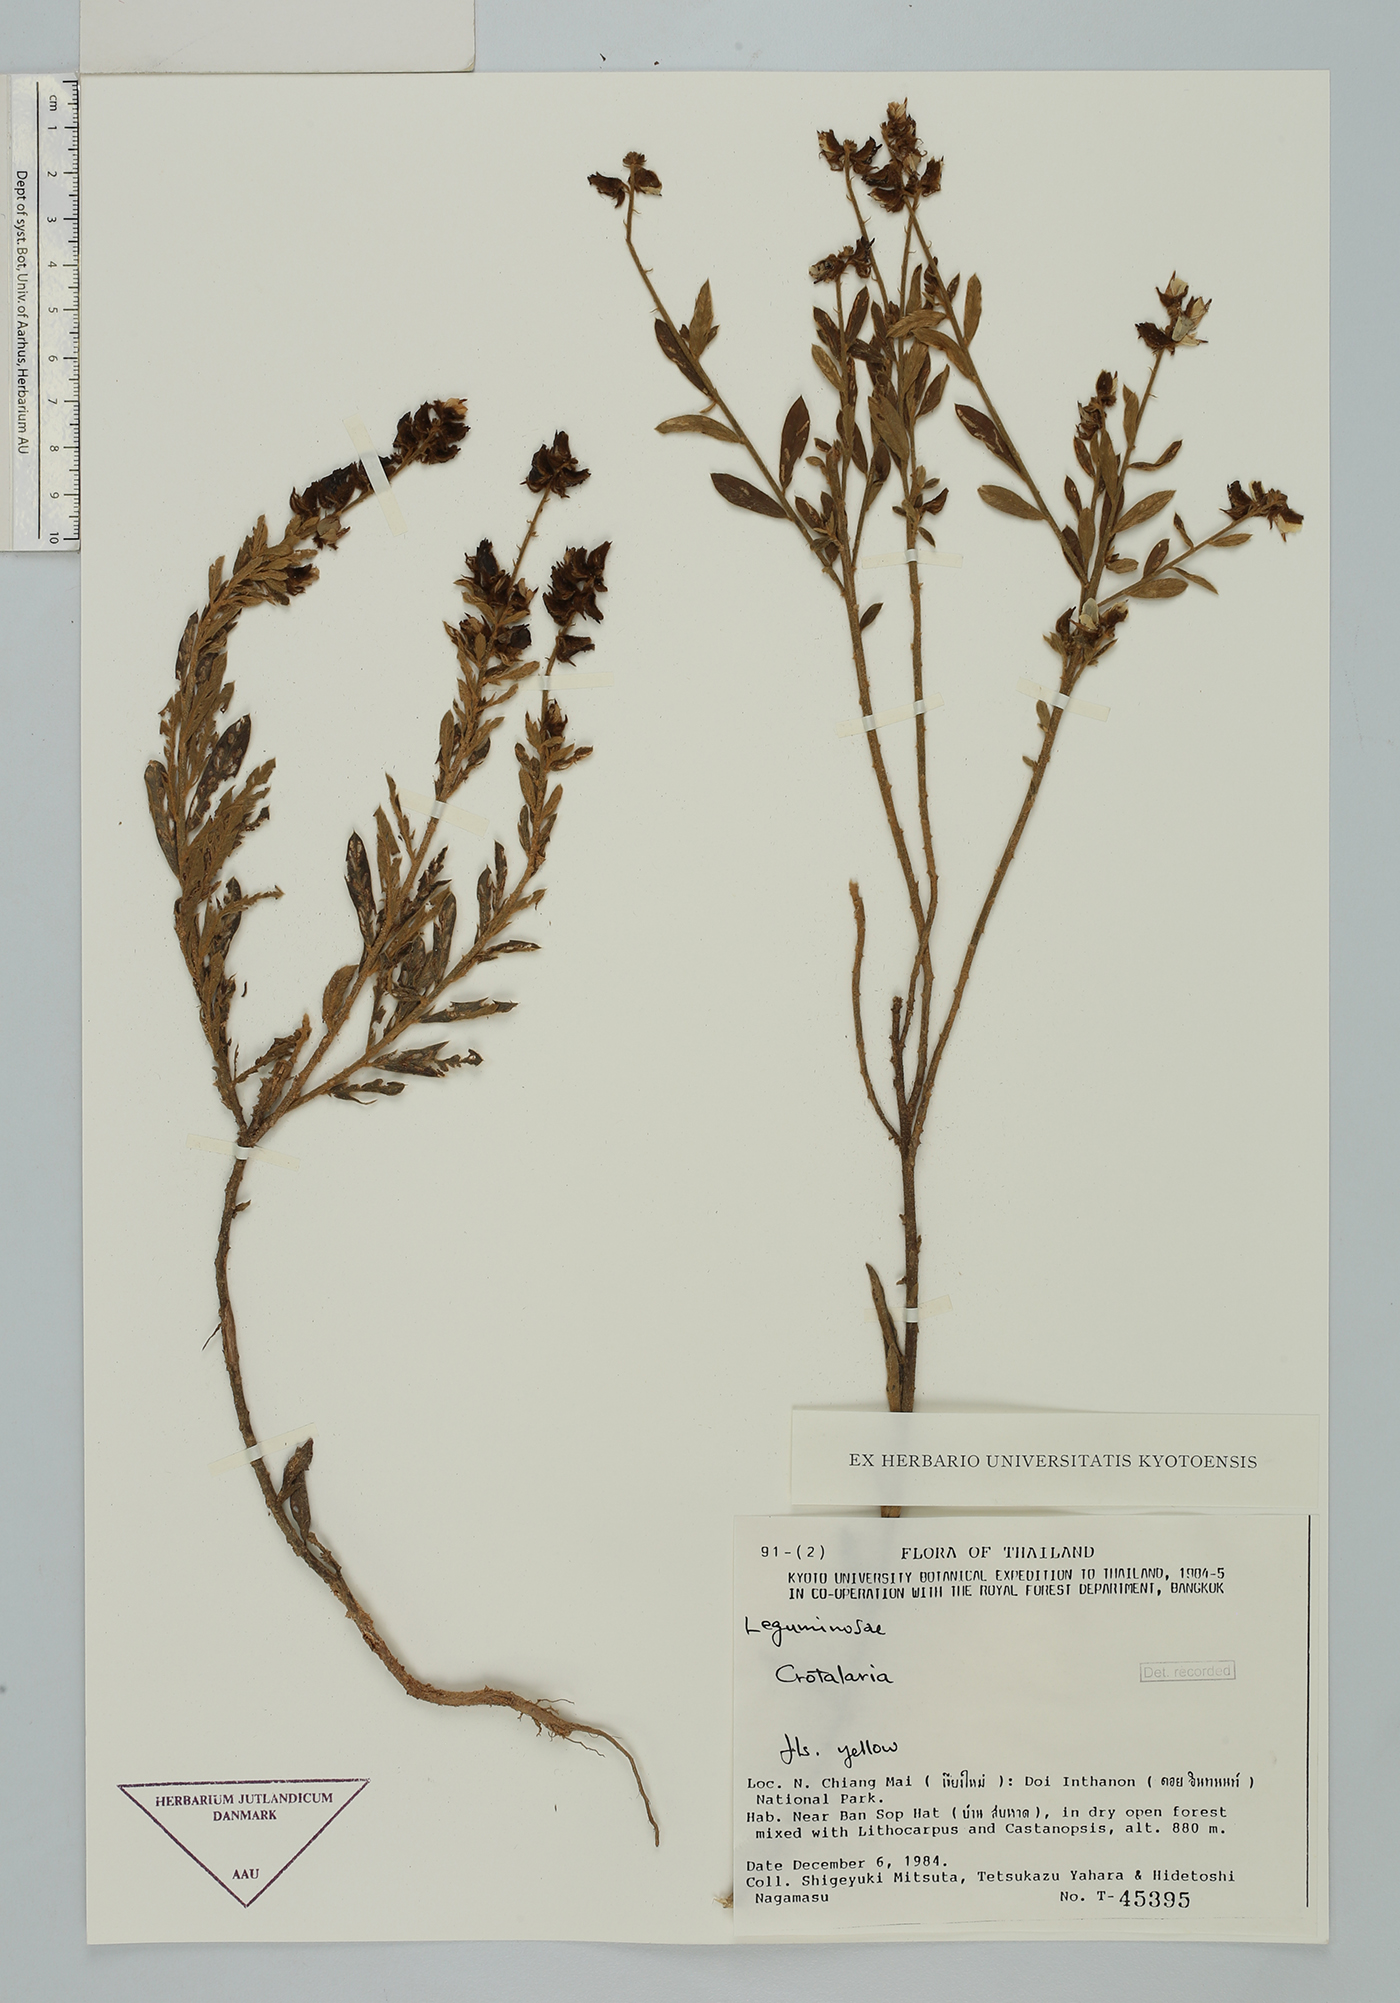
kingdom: Plantae
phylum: Tracheophyta
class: Magnoliopsida
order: Fabales
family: Fabaceae
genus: Crotalaria
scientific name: Crotalaria albida
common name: Taiwan crotalaria
